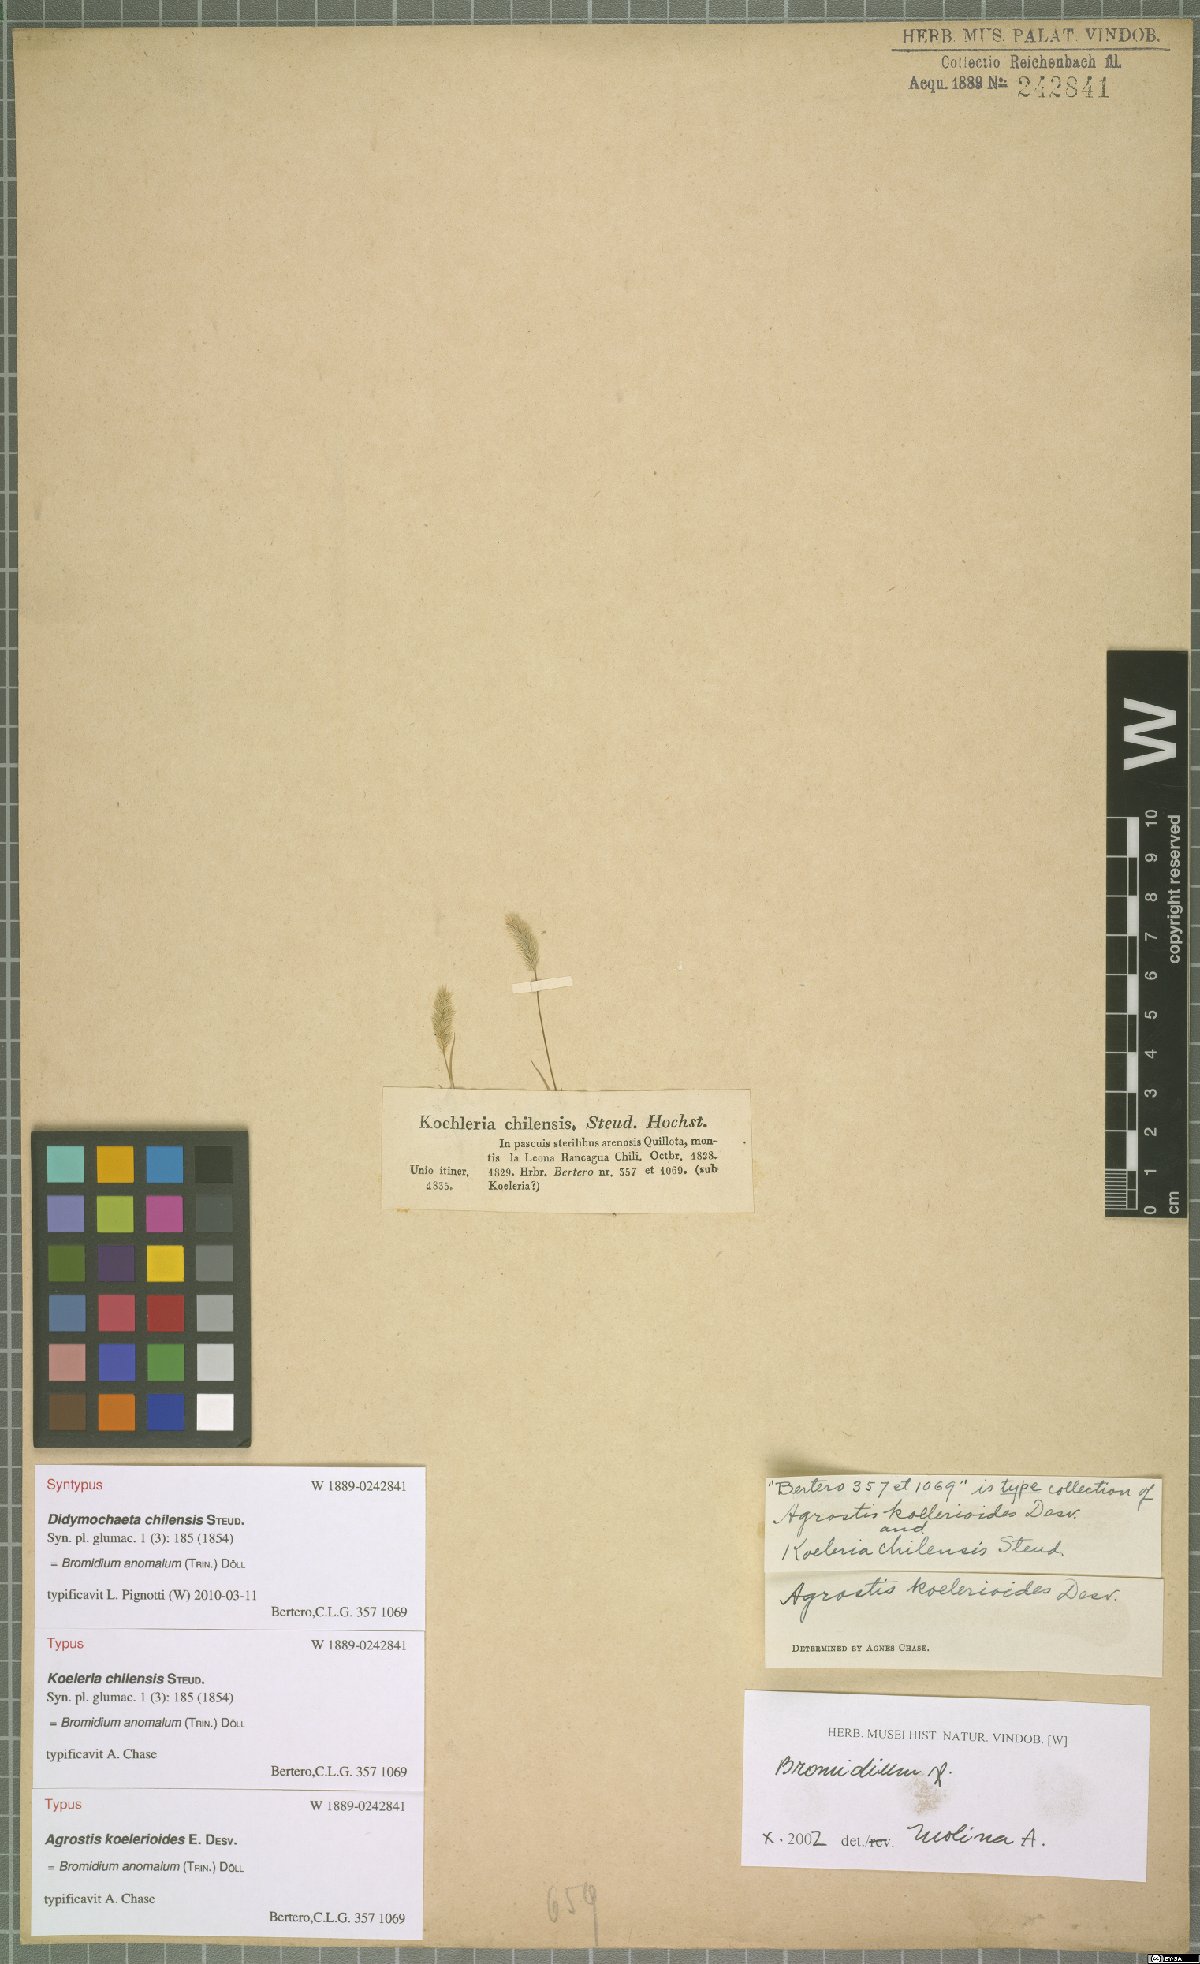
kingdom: Plantae
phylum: Tracheophyta
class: Liliopsida
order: Poales
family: Poaceae
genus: Agrostis
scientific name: Agrostis koelerioides
